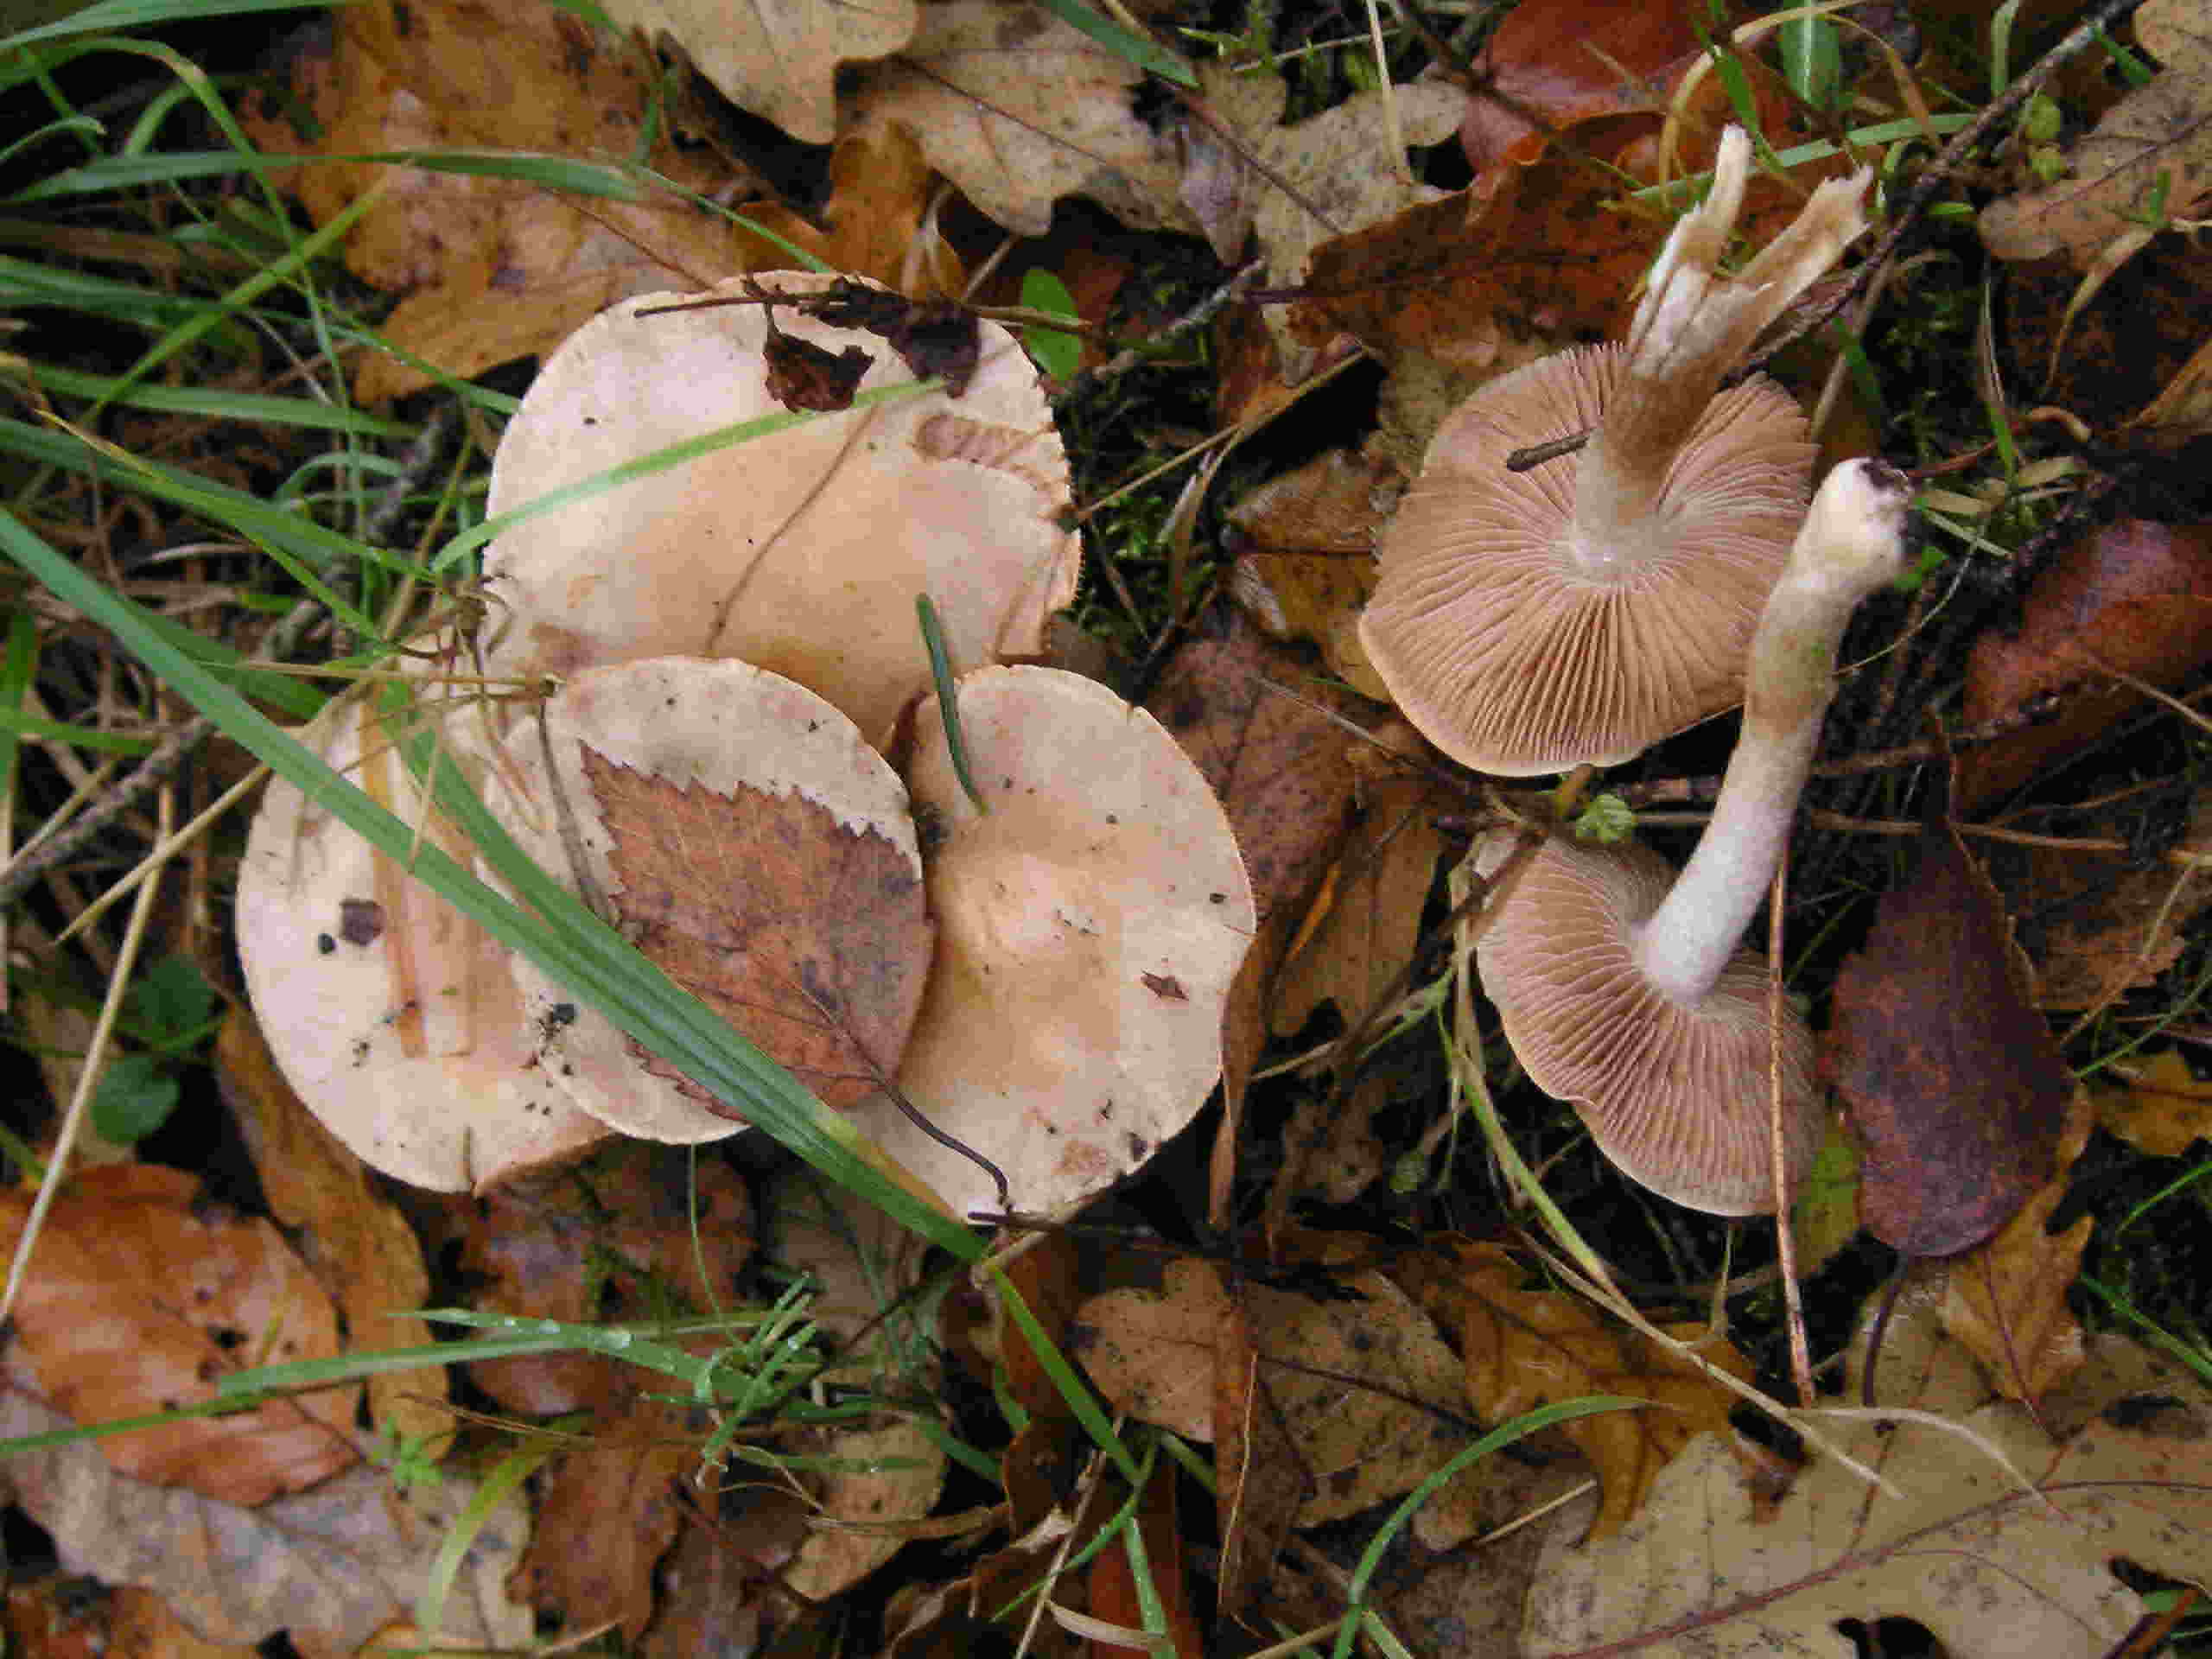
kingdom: Fungi
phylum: Basidiomycota
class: Agaricomycetes
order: Agaricales
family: Hymenogastraceae
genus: Hebeloma
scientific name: Hebeloma leucosarx
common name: højstokket tåreblad
